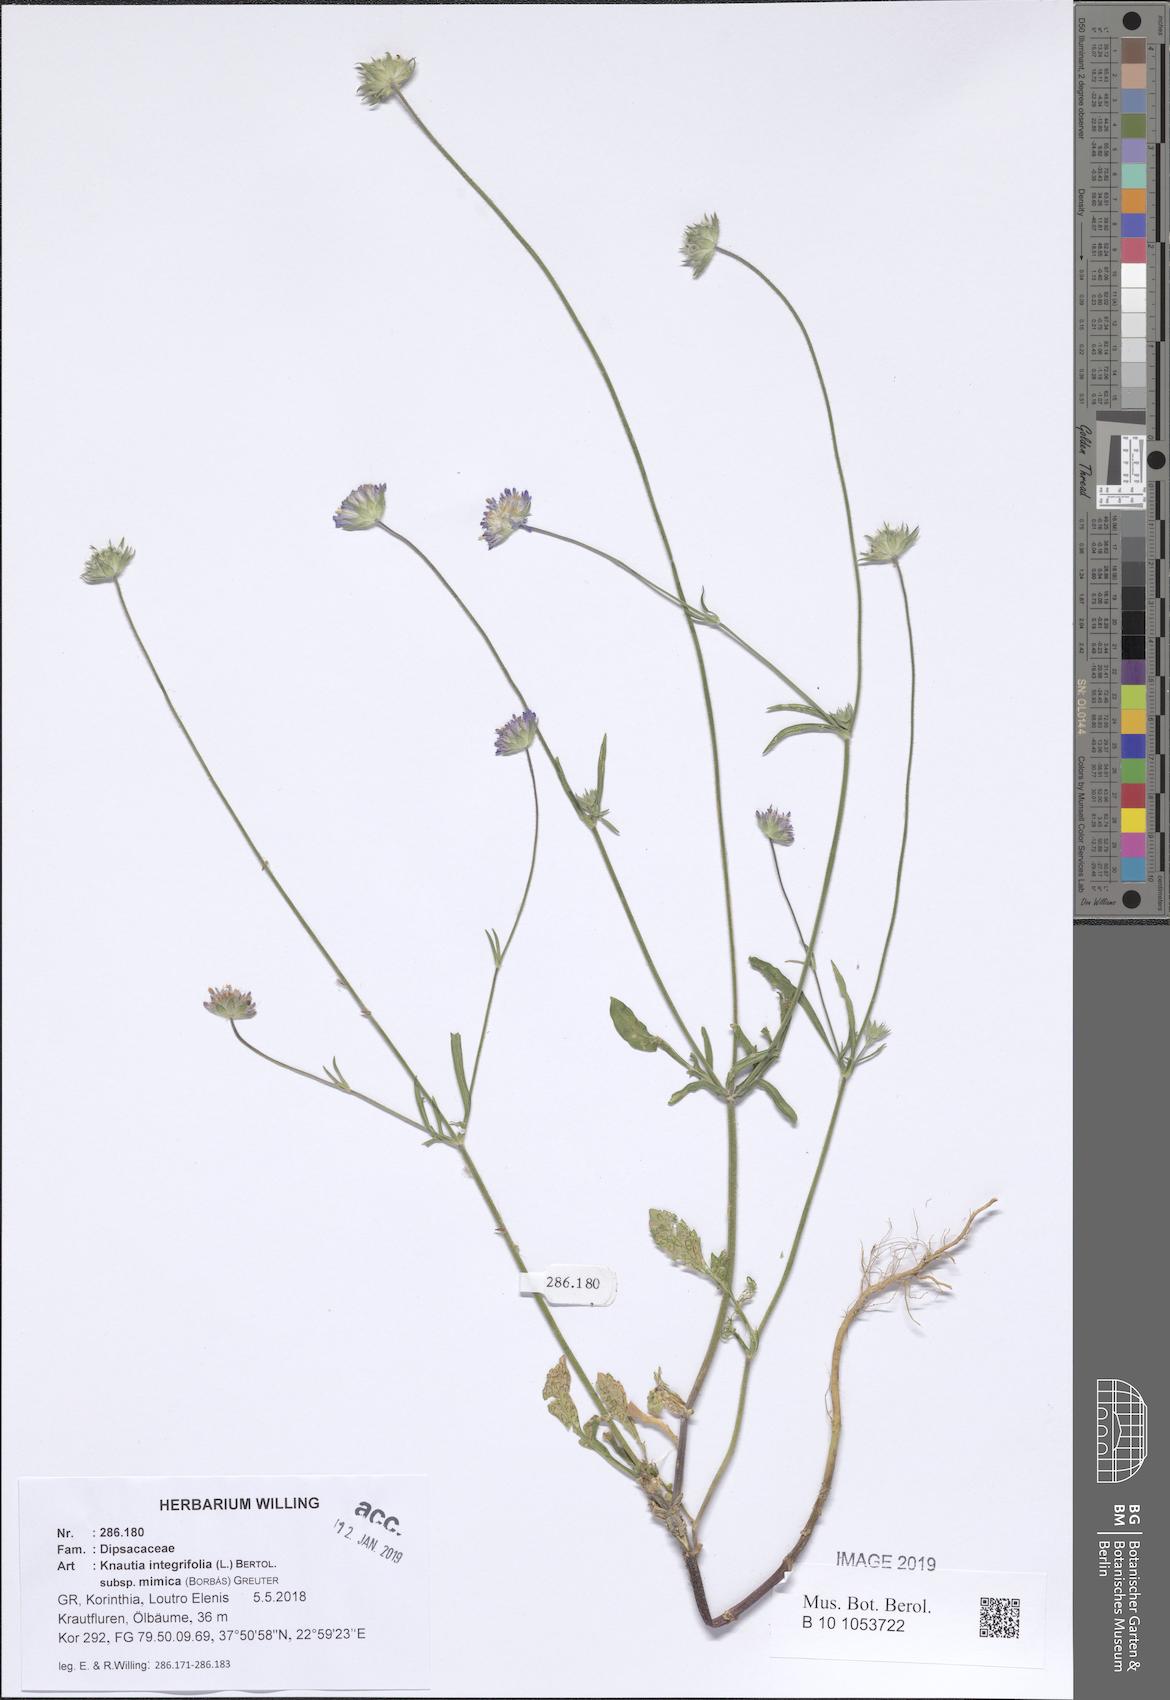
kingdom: Plantae
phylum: Tracheophyta
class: Magnoliopsida
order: Dipsacales
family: Caprifoliaceae
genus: Knautia
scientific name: Knautia integrifolia
